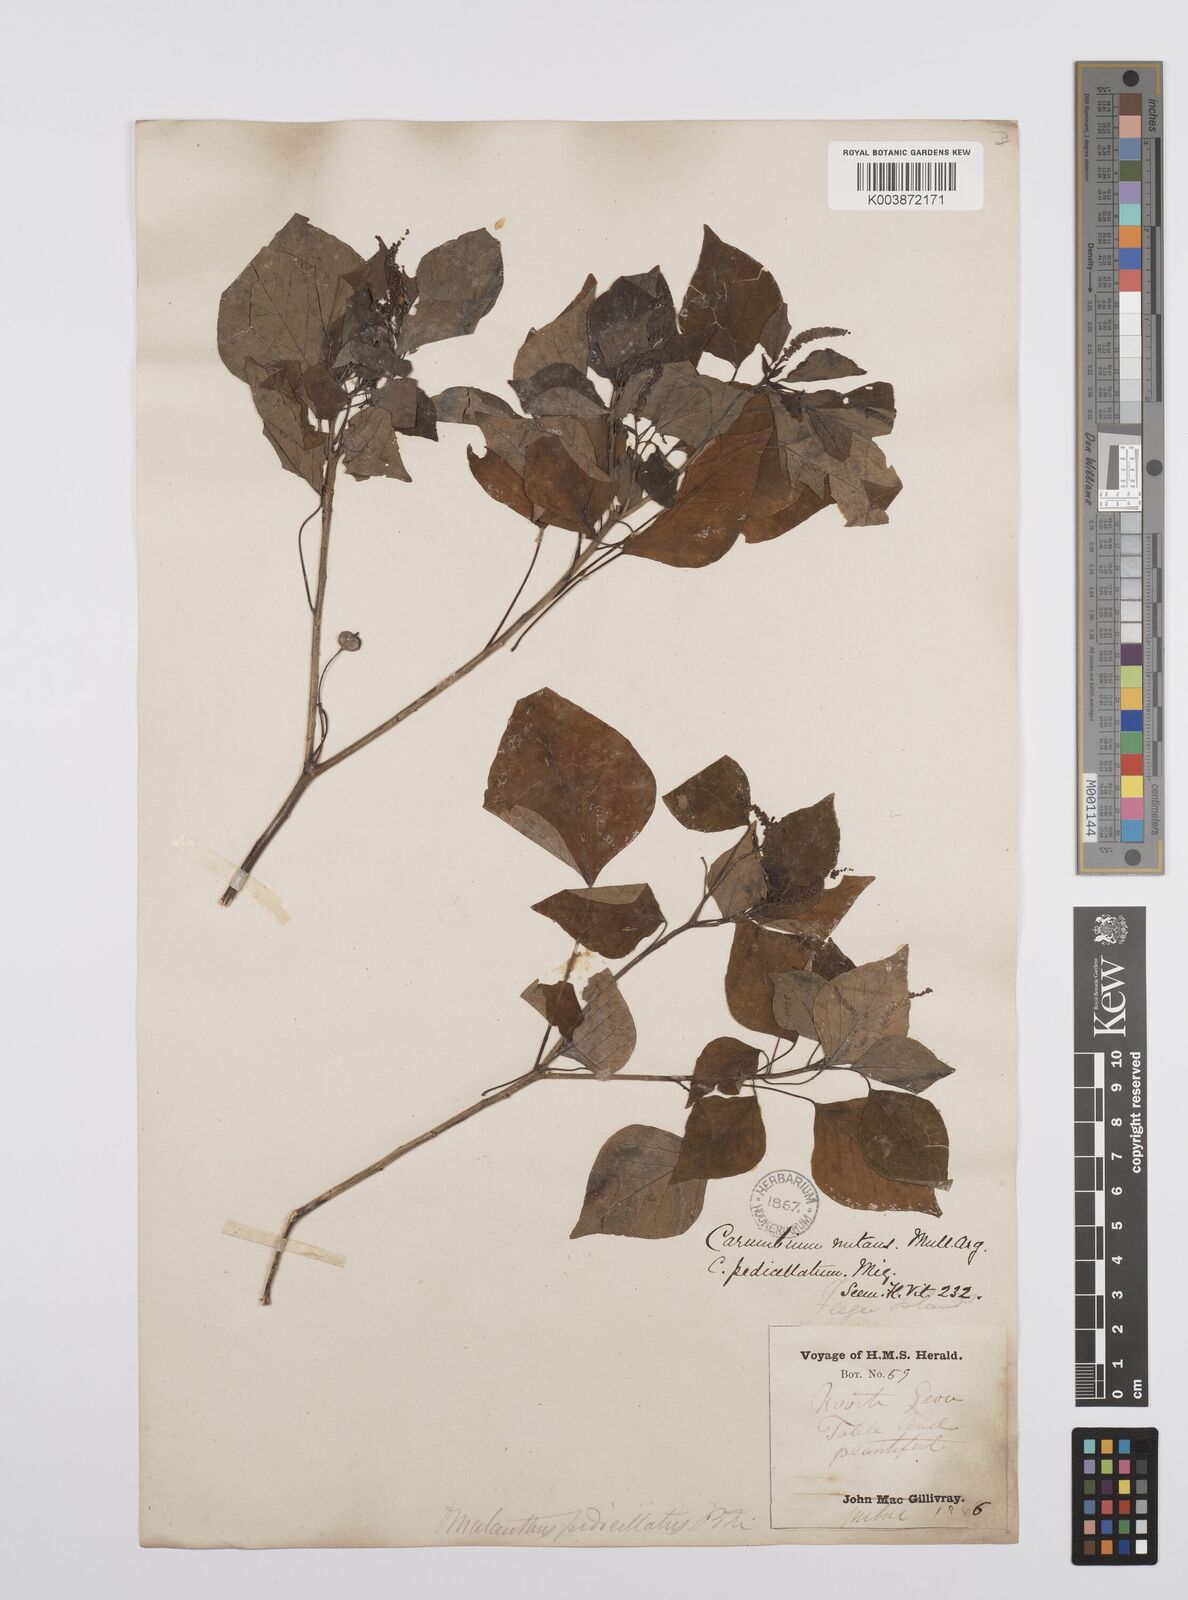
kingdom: Plantae
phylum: Tracheophyta
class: Magnoliopsida
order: Malpighiales
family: Euphorbiaceae
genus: Homalanthus
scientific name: Homalanthus nutans
